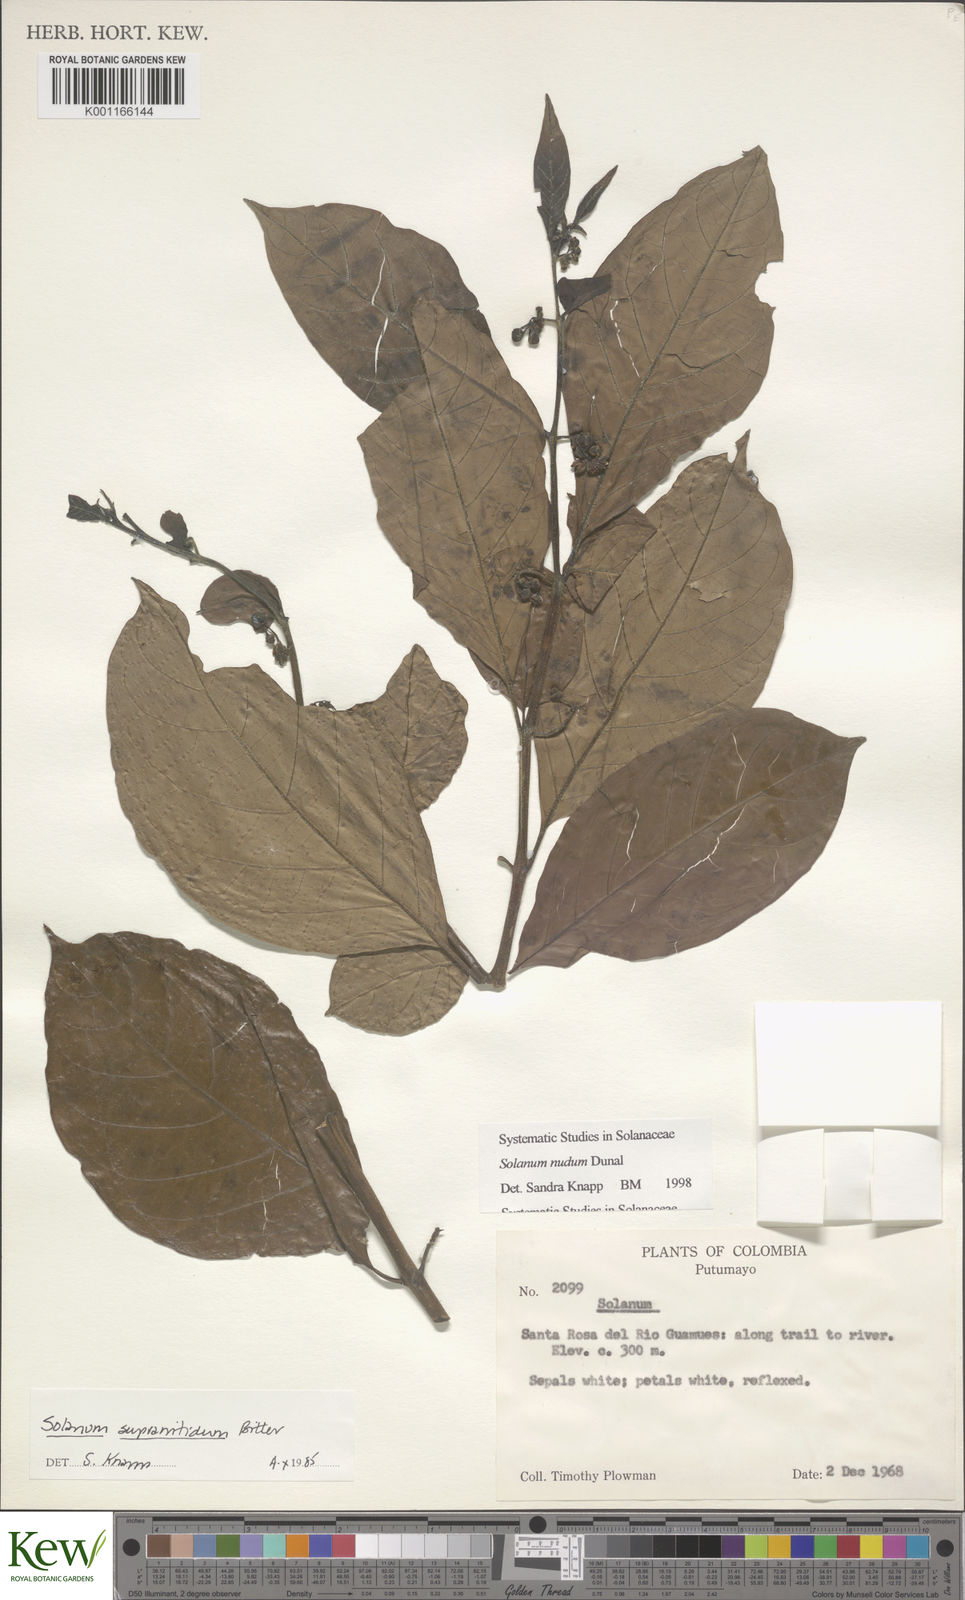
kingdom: Plantae
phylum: Tracheophyta
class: Magnoliopsida
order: Solanales
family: Solanaceae
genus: Solanum
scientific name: Solanum nudum
